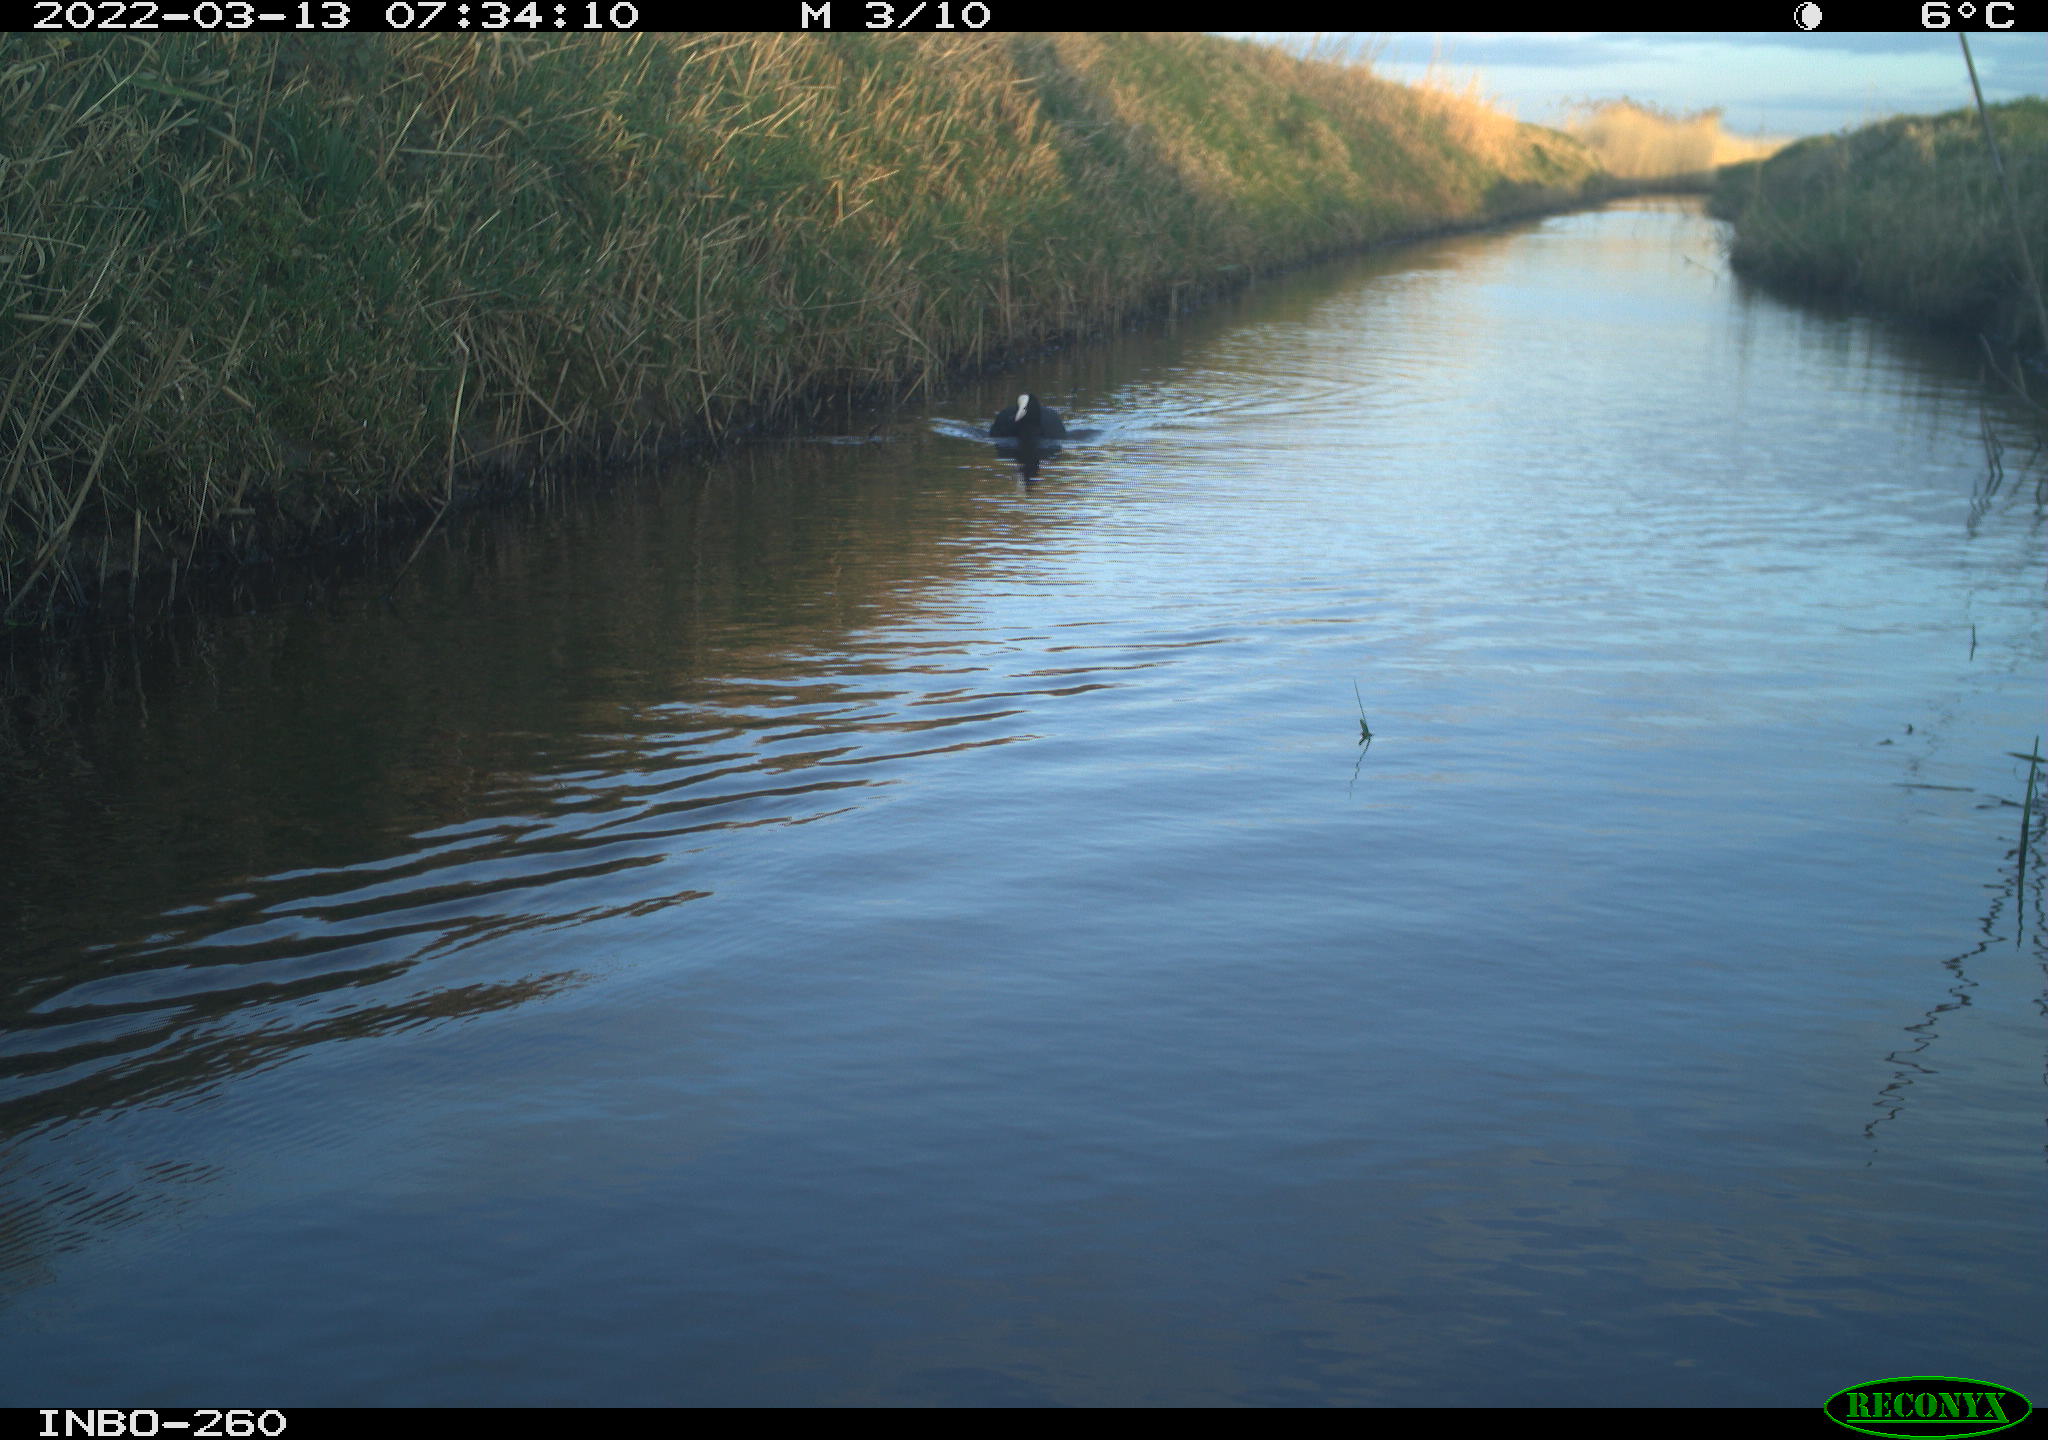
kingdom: Animalia
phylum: Chordata
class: Aves
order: Gruiformes
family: Rallidae
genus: Fulica
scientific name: Fulica atra
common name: Eurasian coot
